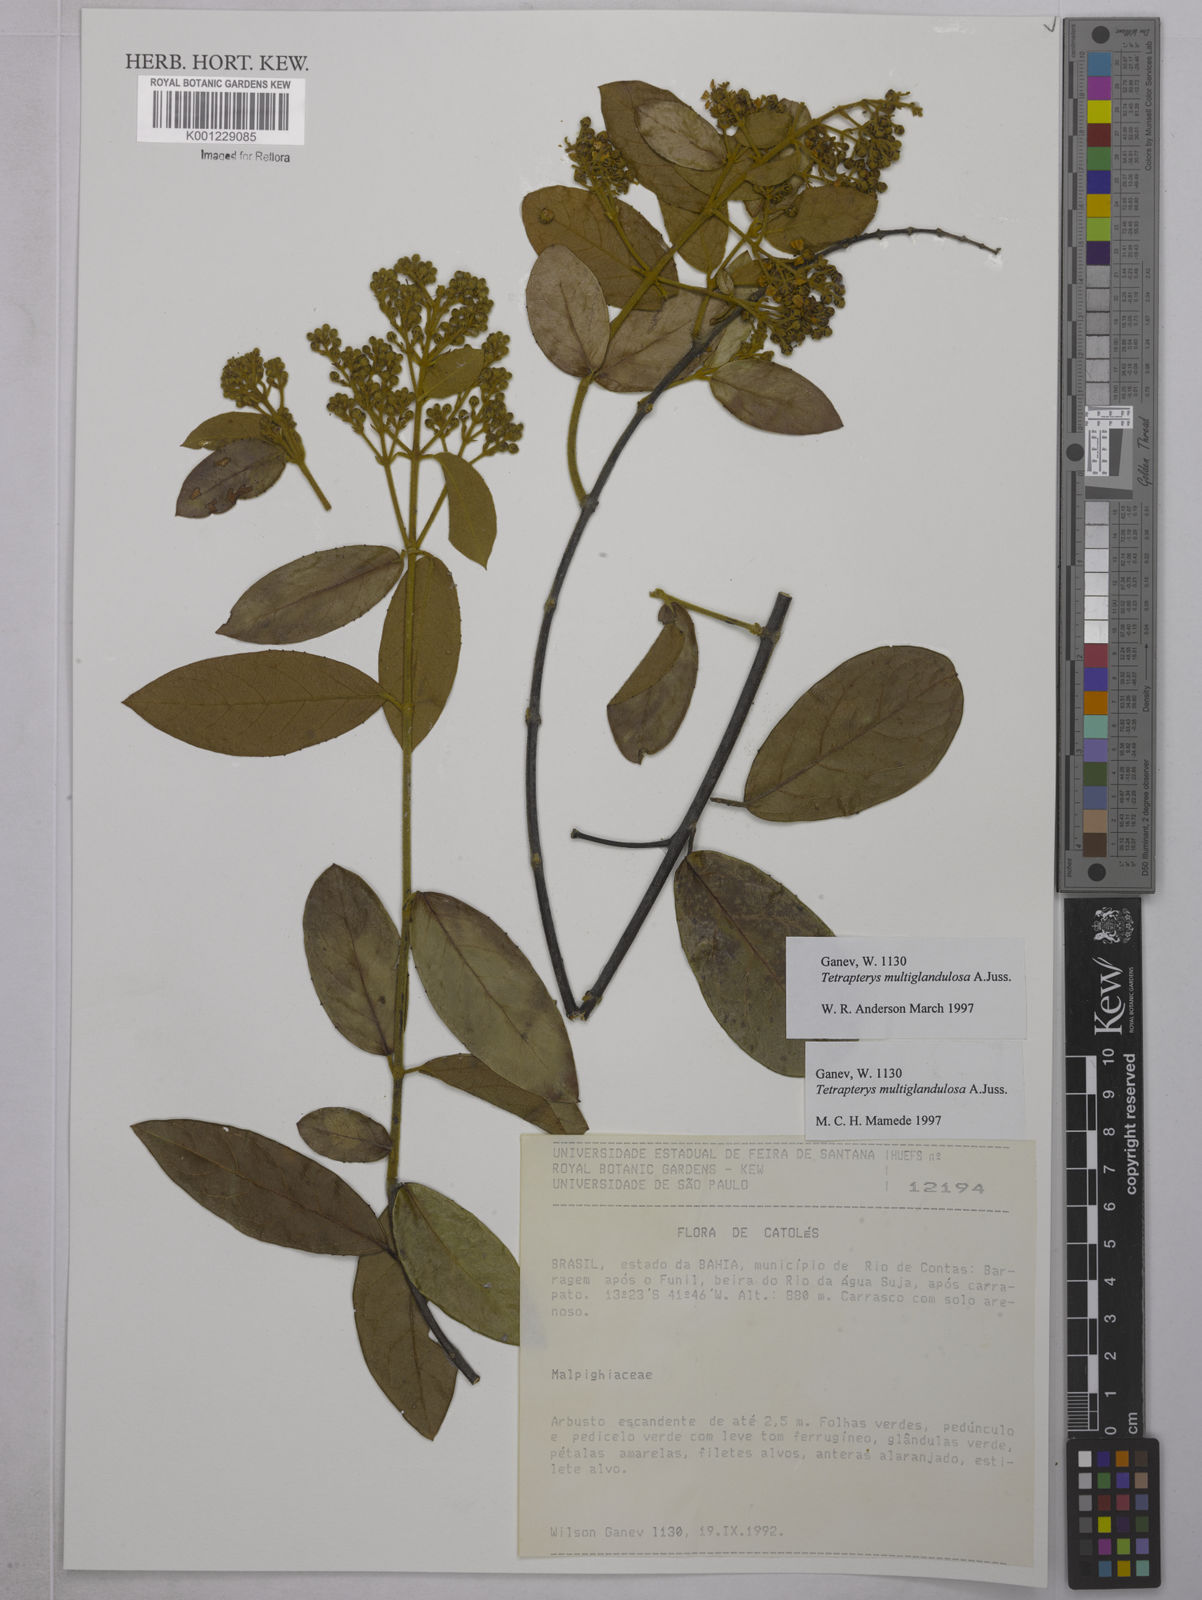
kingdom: Plantae
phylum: Tracheophyta
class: Magnoliopsida
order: Malpighiales
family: Malpighiaceae
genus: Niedenzuella
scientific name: Niedenzuella multiglandulosa
